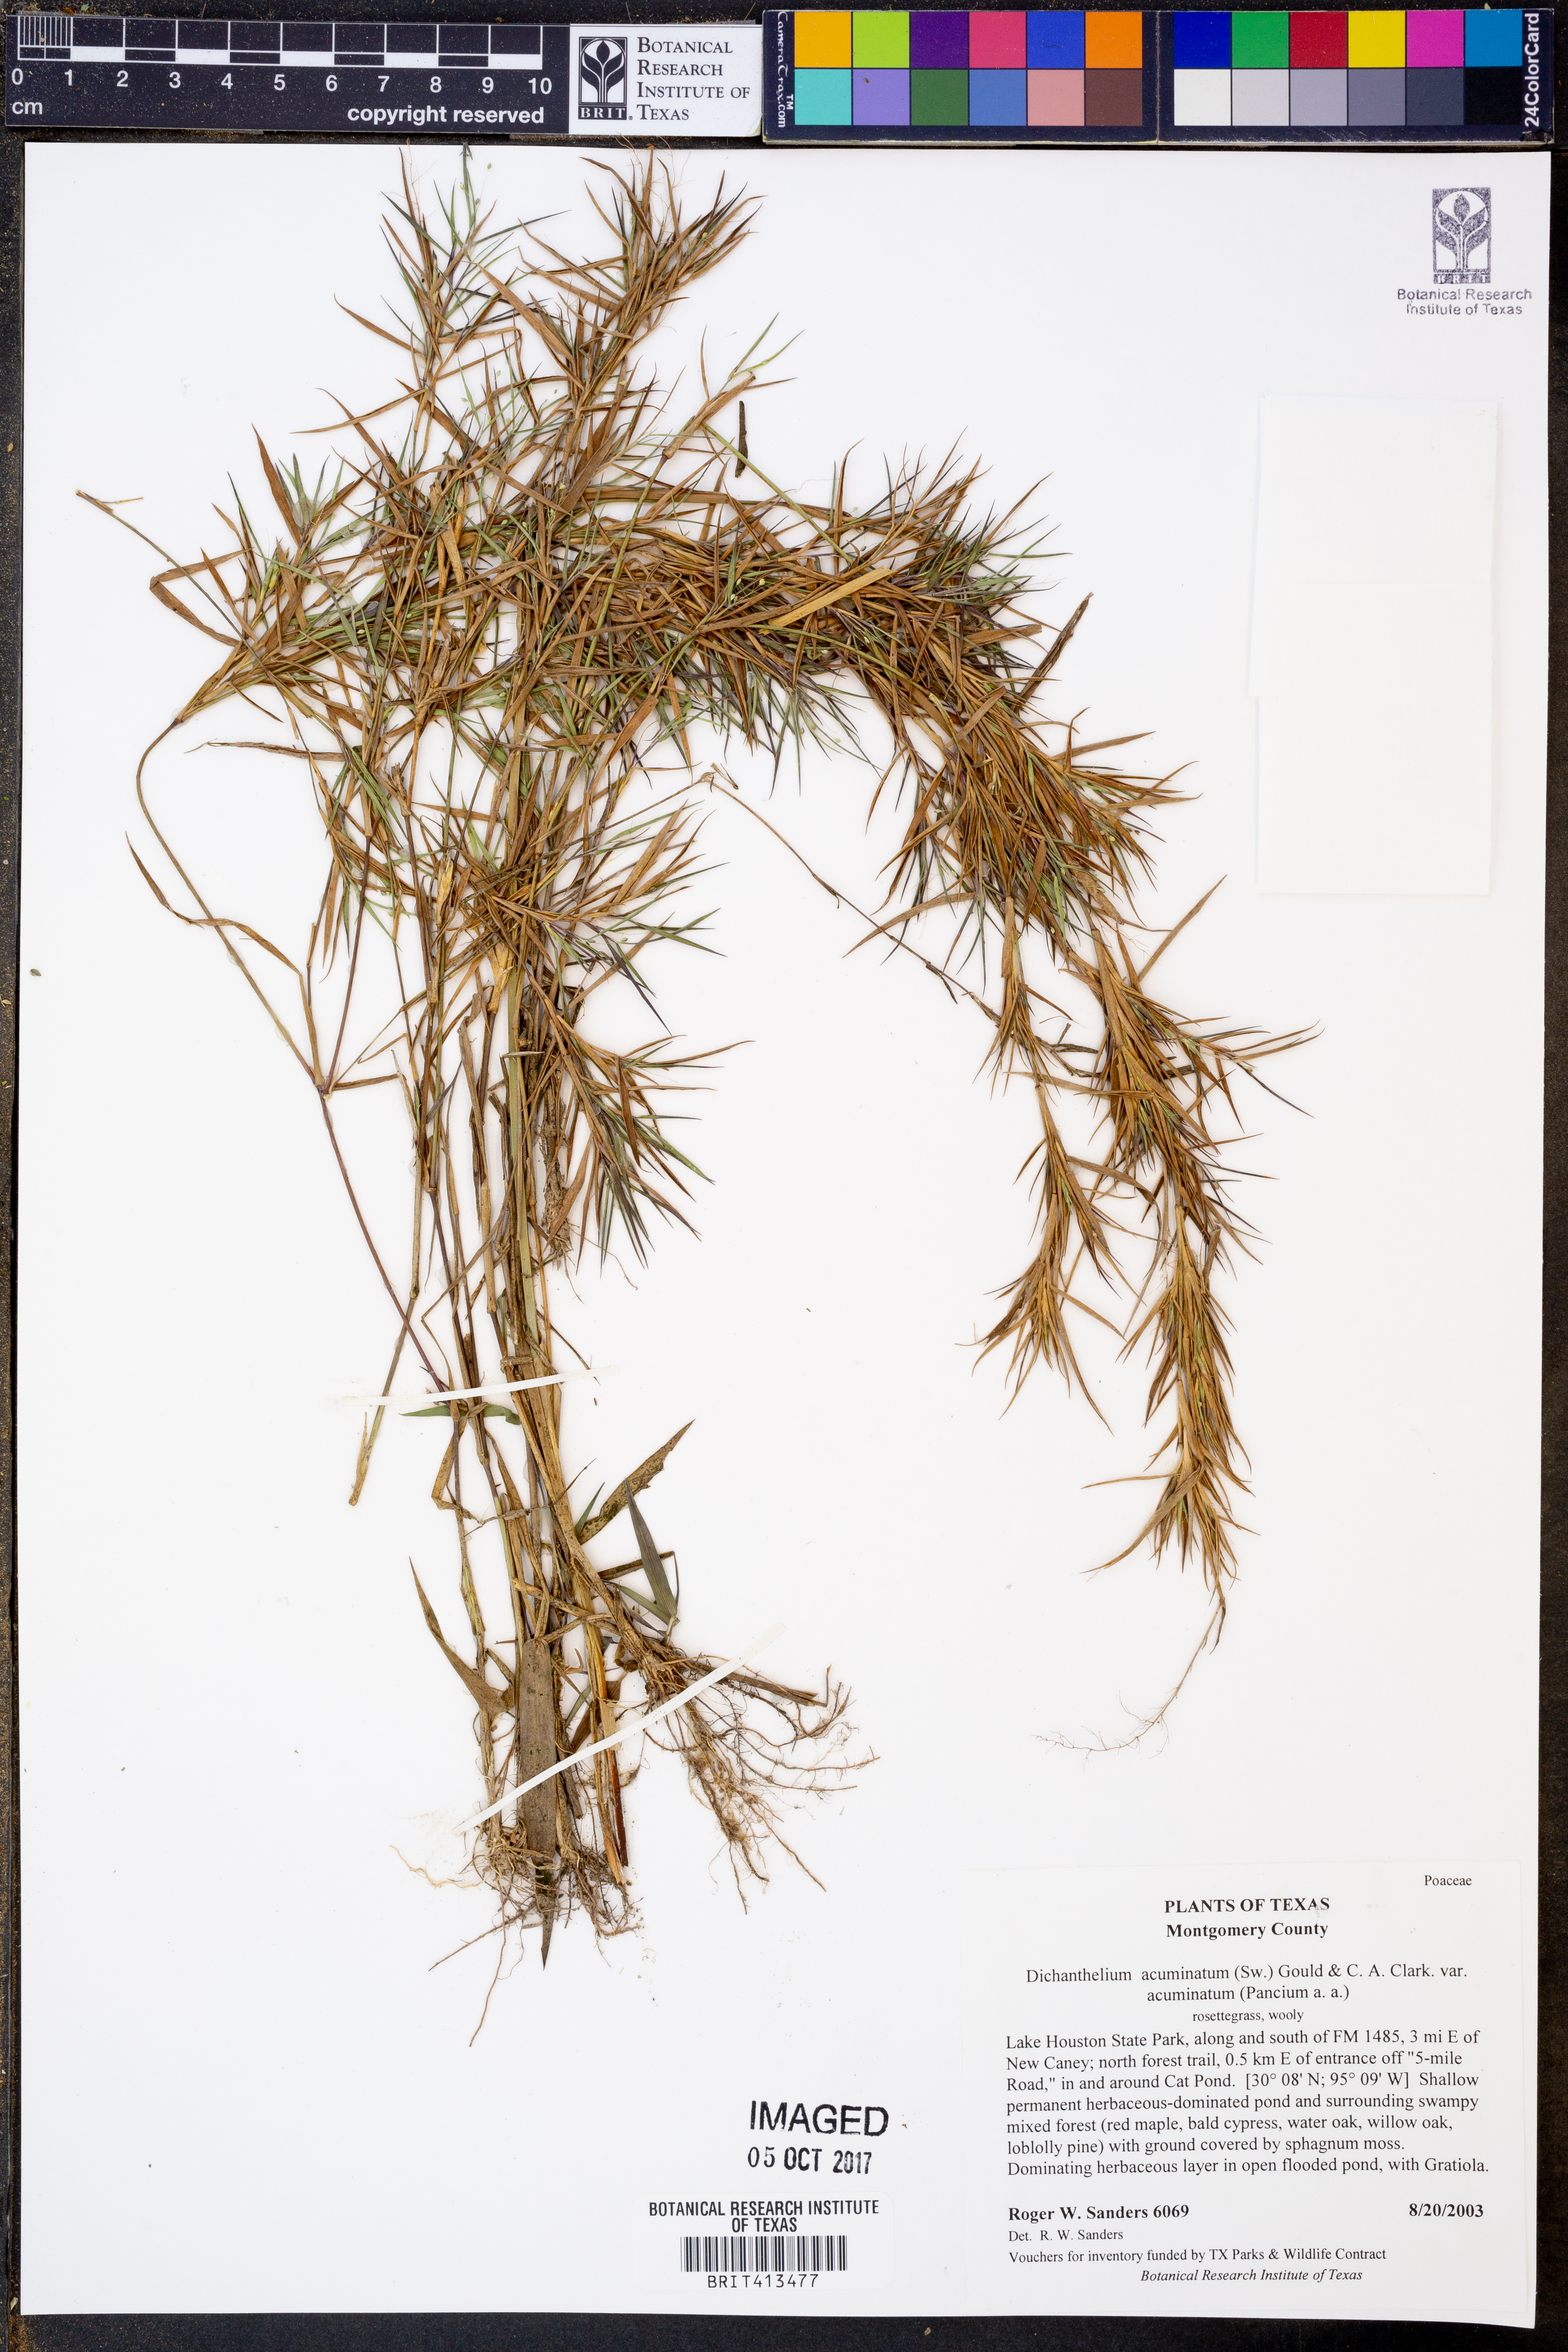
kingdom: Plantae
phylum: Tracheophyta
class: Liliopsida
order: Poales
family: Poaceae
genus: Dichanthelium
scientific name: Dichanthelium acuminatum
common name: Hairy panic grass
